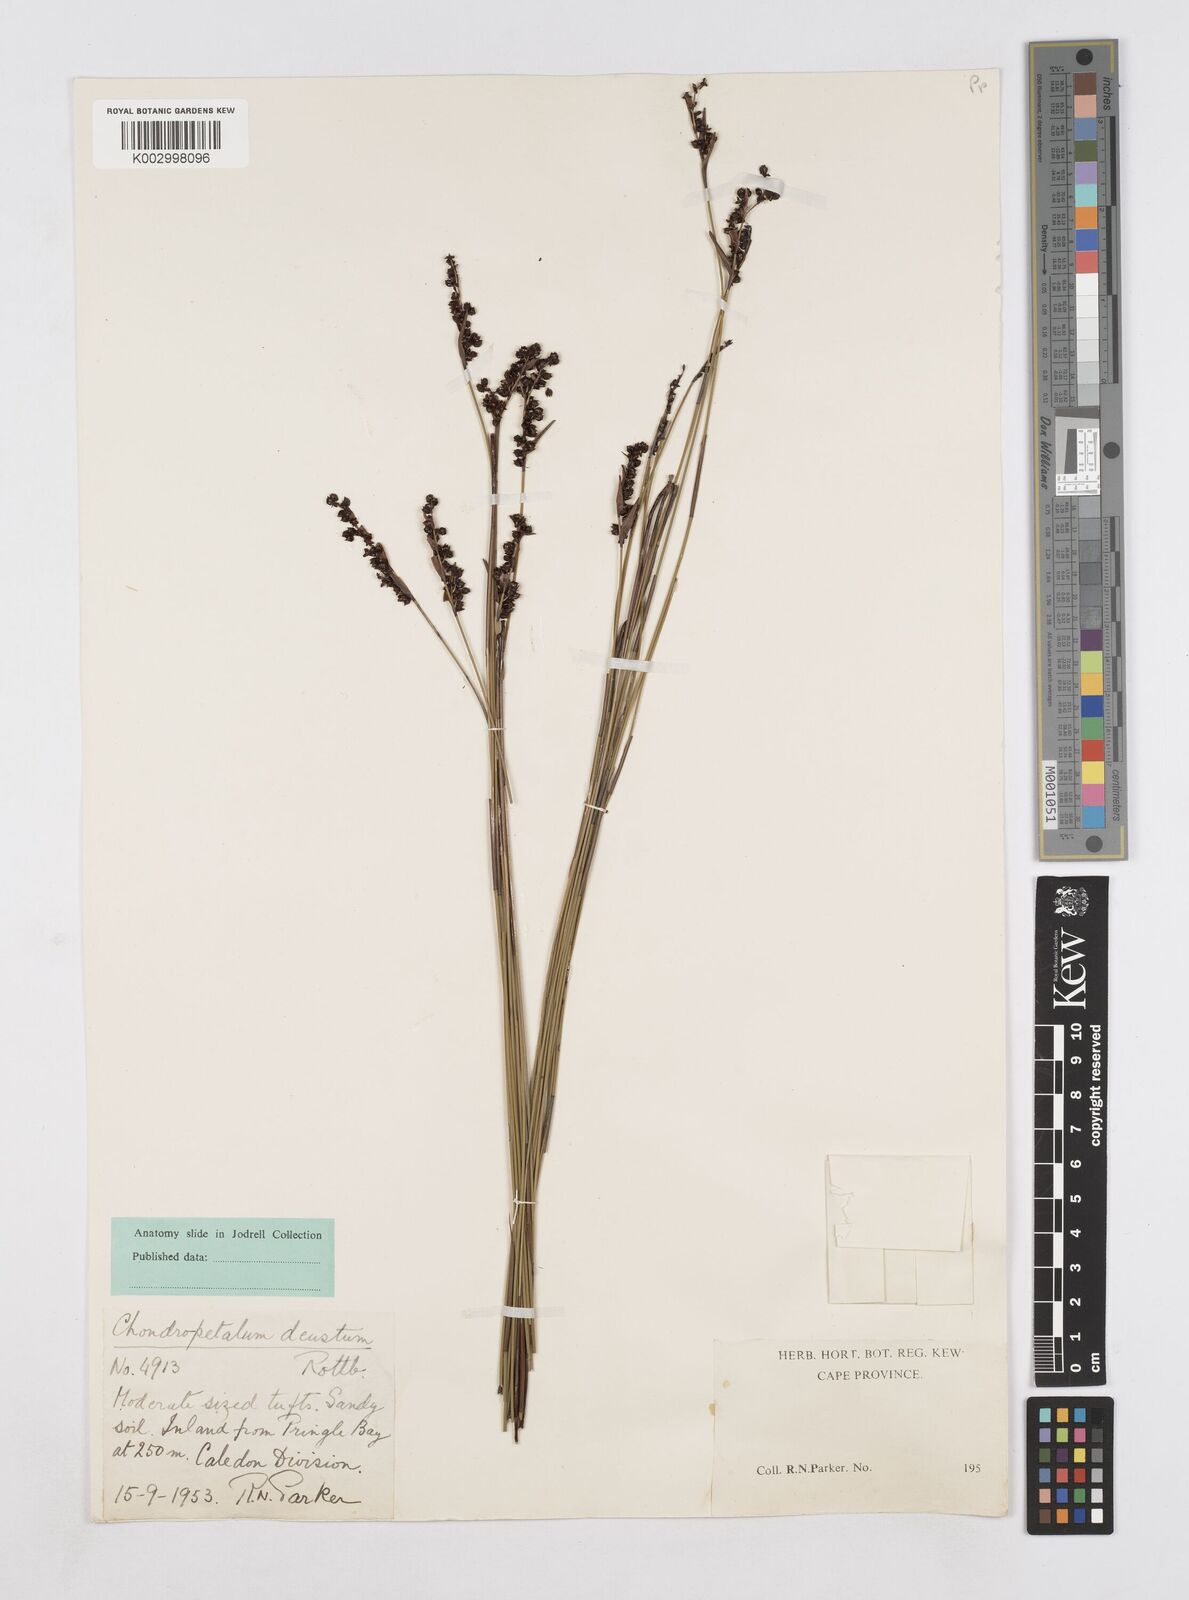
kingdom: Plantae
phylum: Tracheophyta
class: Liliopsida
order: Poales
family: Restionaceae
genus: Elegia
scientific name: Elegia deusta
